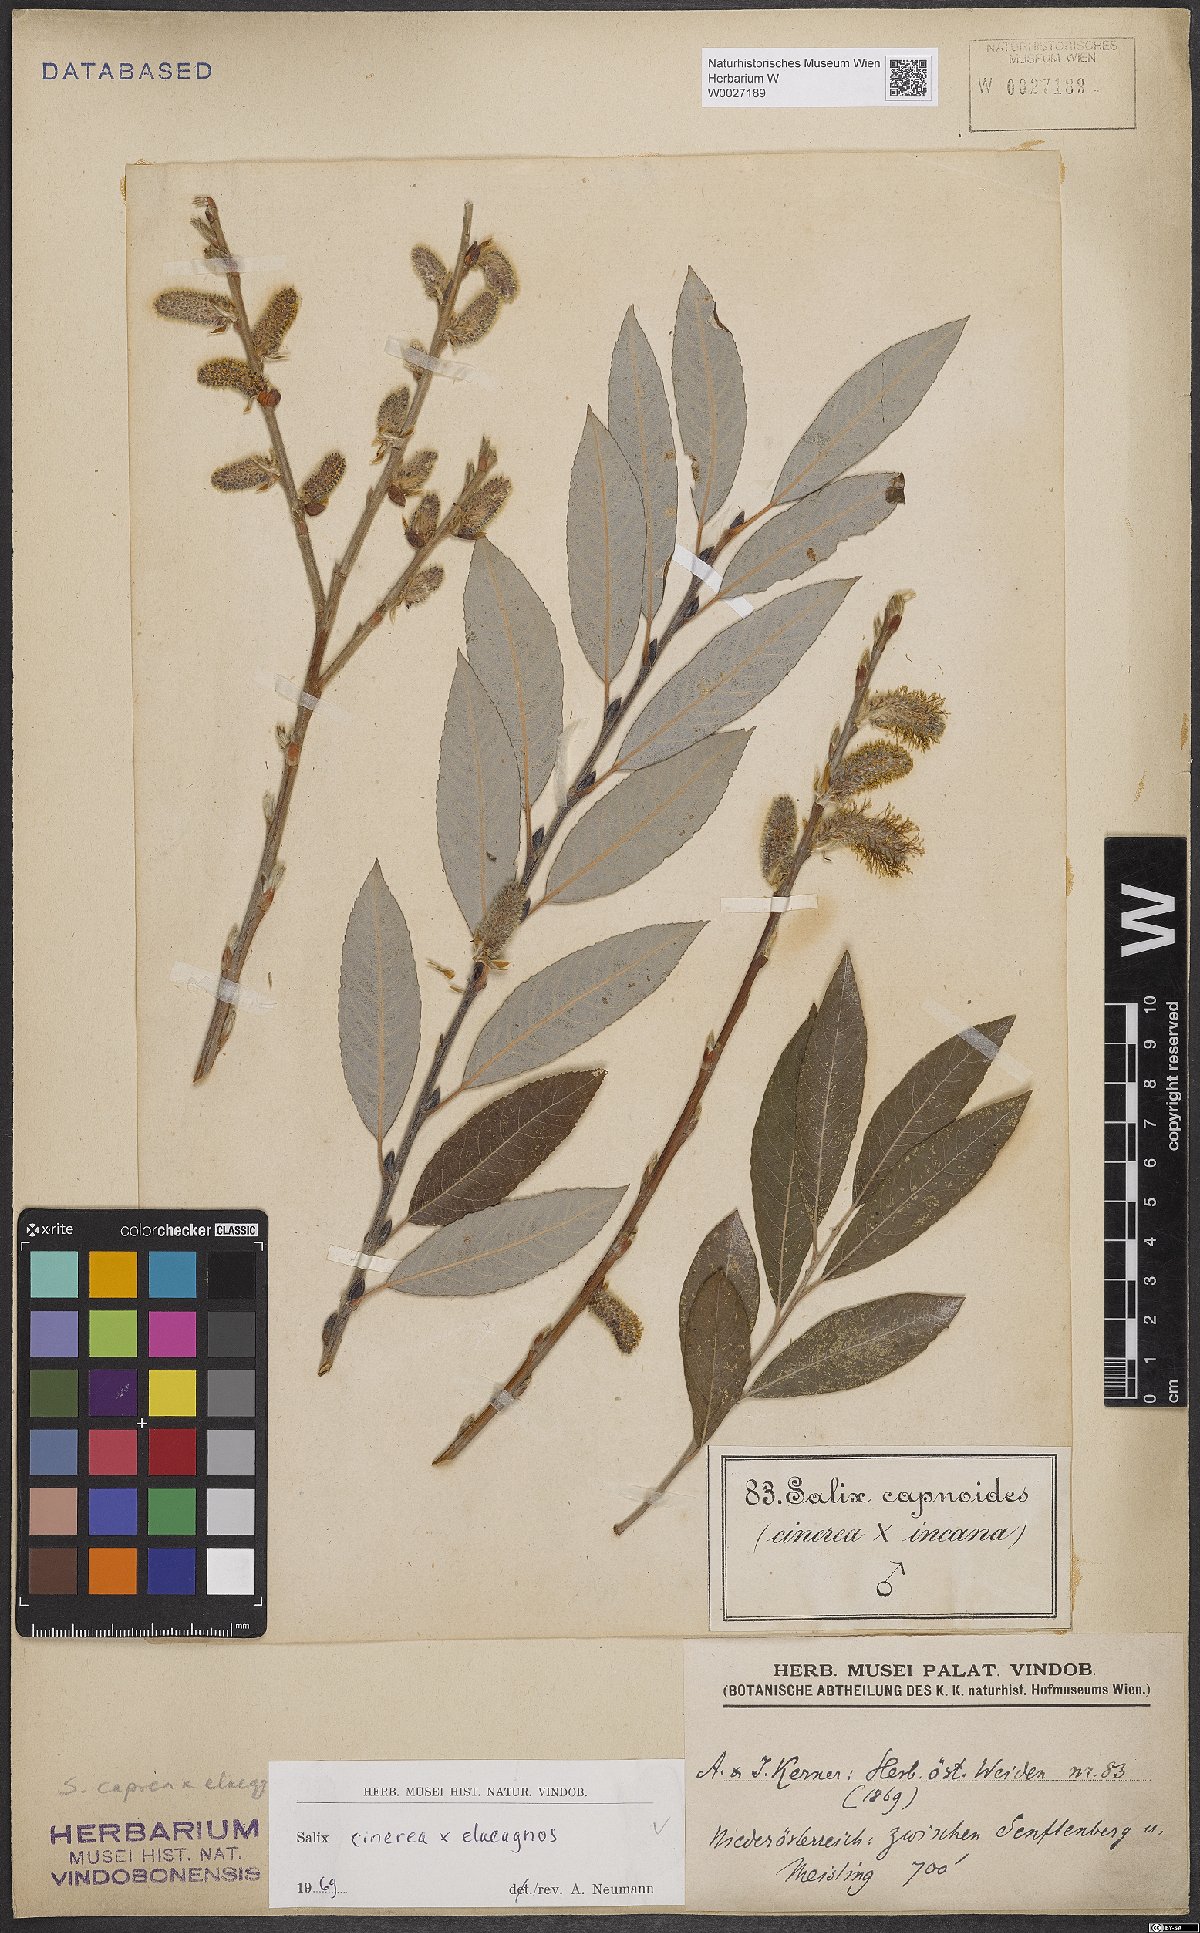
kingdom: Plantae
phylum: Tracheophyta
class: Magnoliopsida
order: Malpighiales
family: Salicaceae
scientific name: Salicaceae
